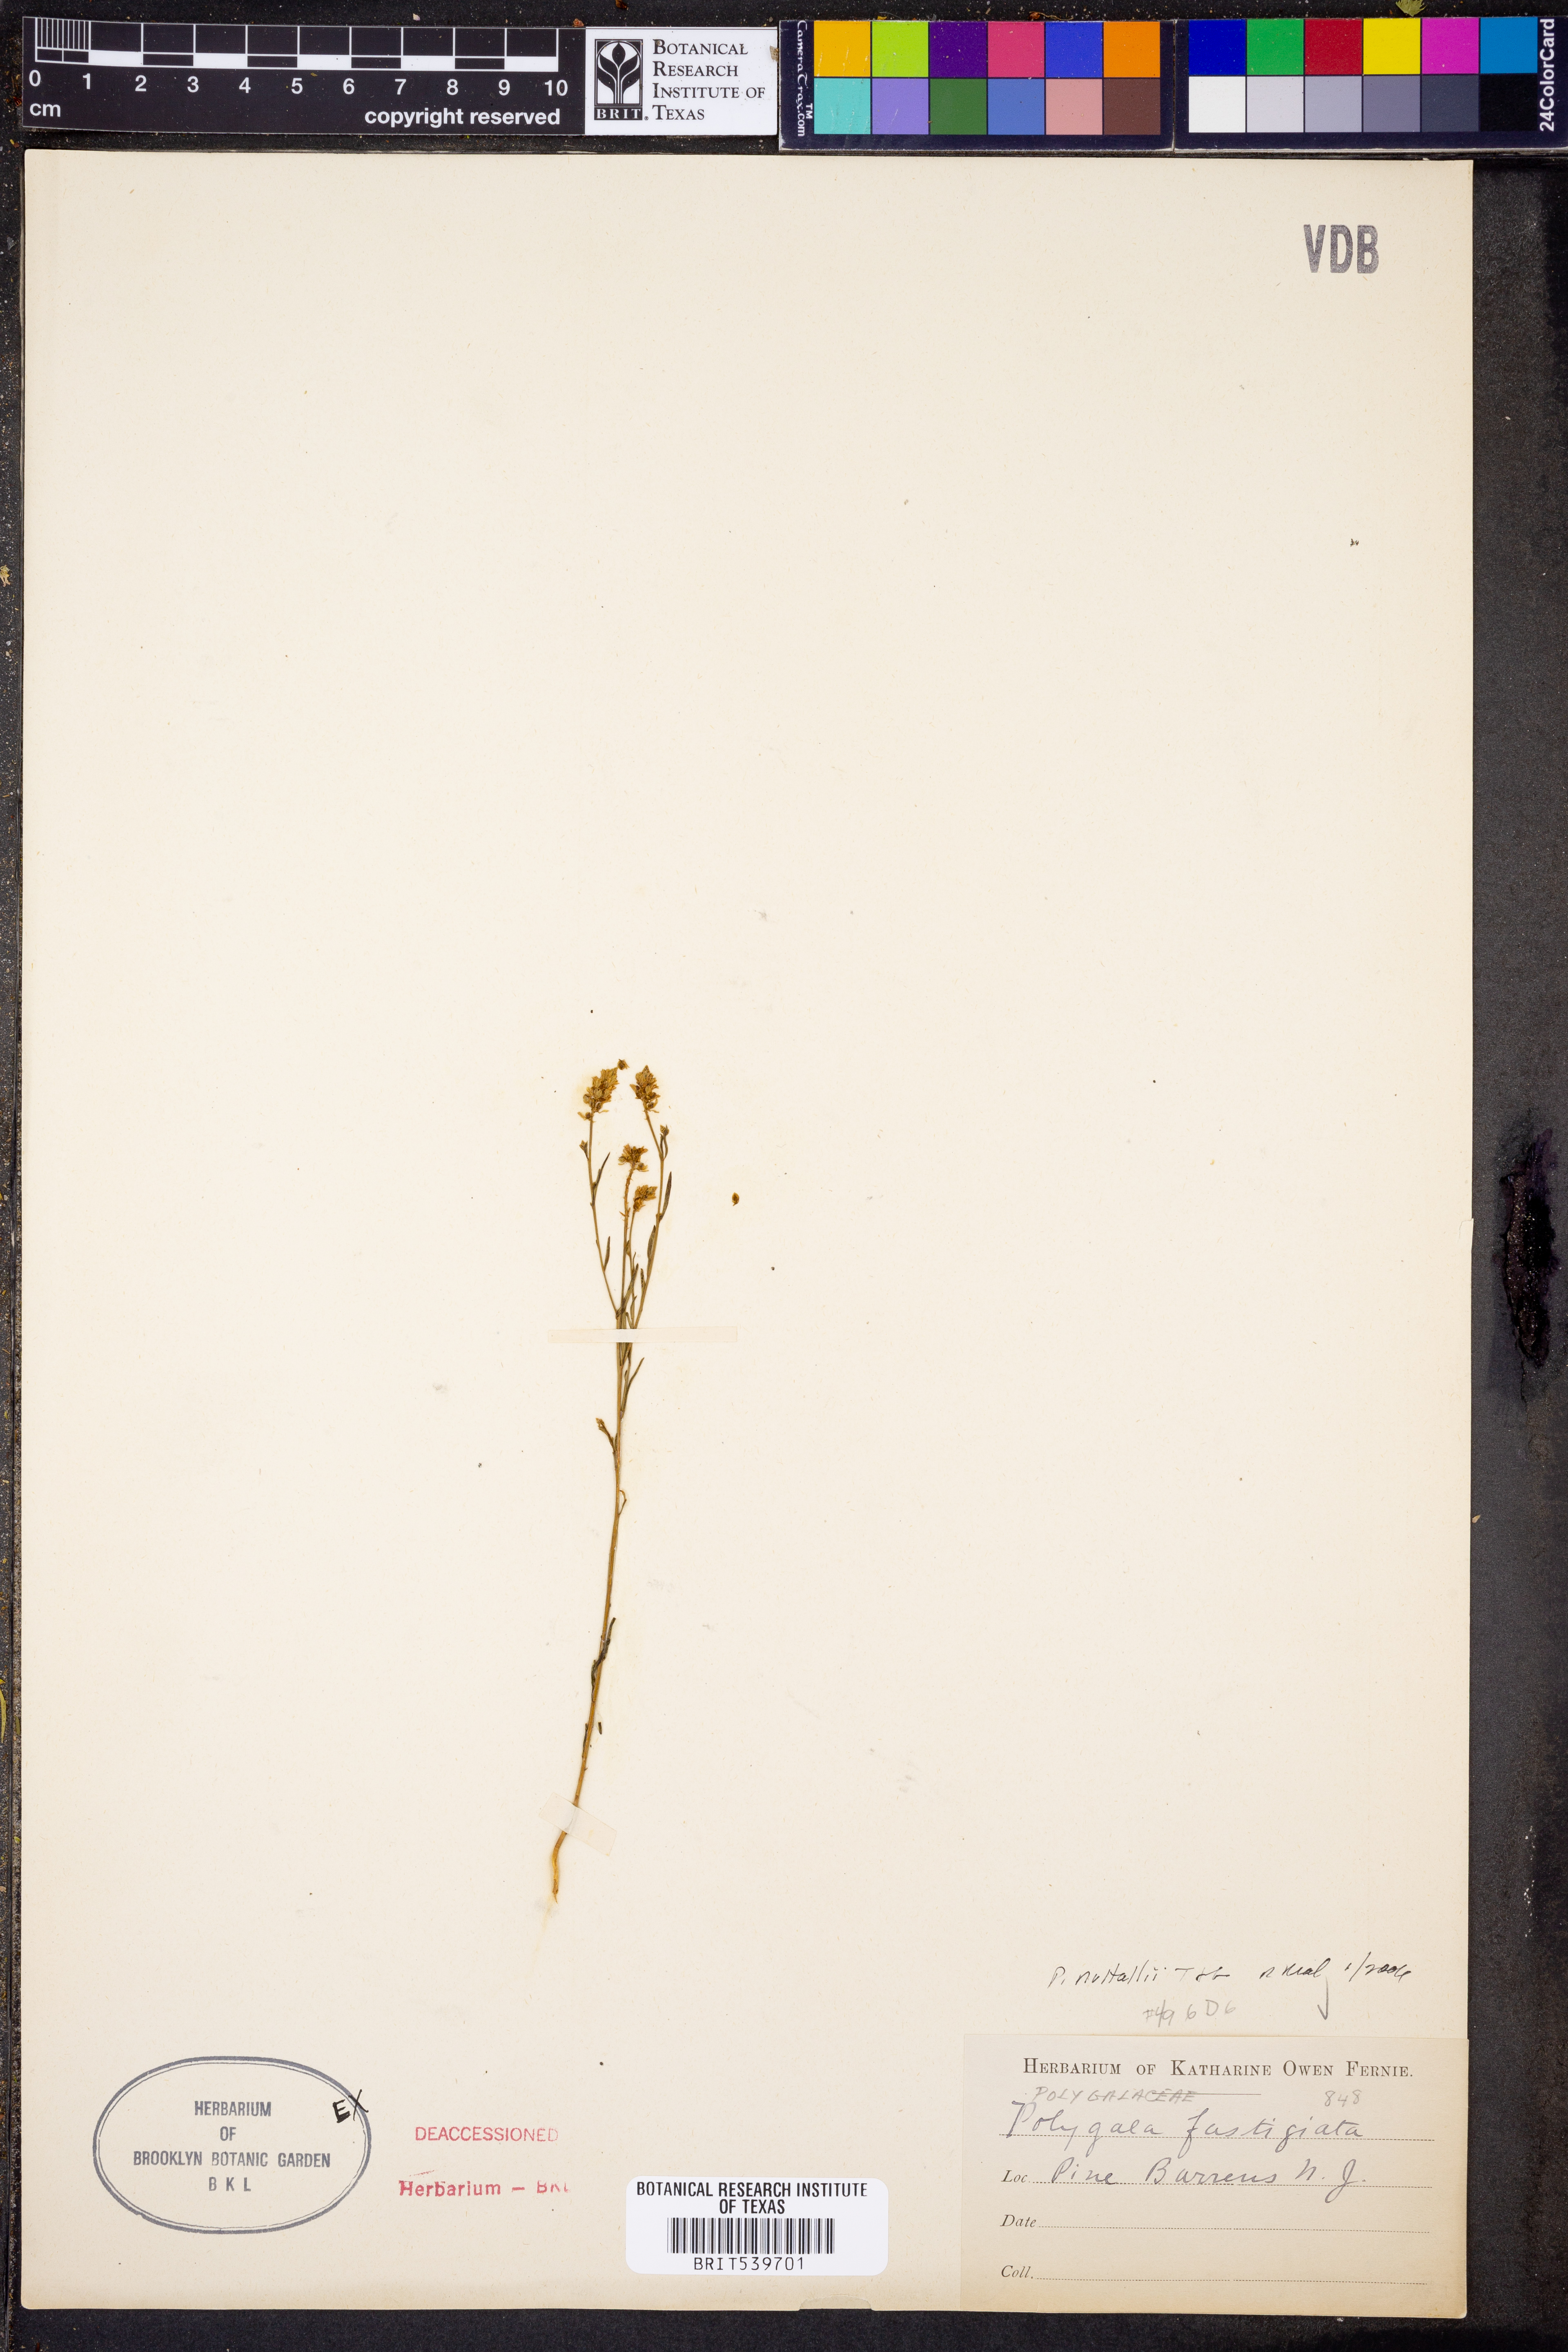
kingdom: Plantae
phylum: Tracheophyta
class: Magnoliopsida
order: Fabales
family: Polygalaceae
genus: Polygala
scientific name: Polygala nuttallii
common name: Nuttall's milkwort
